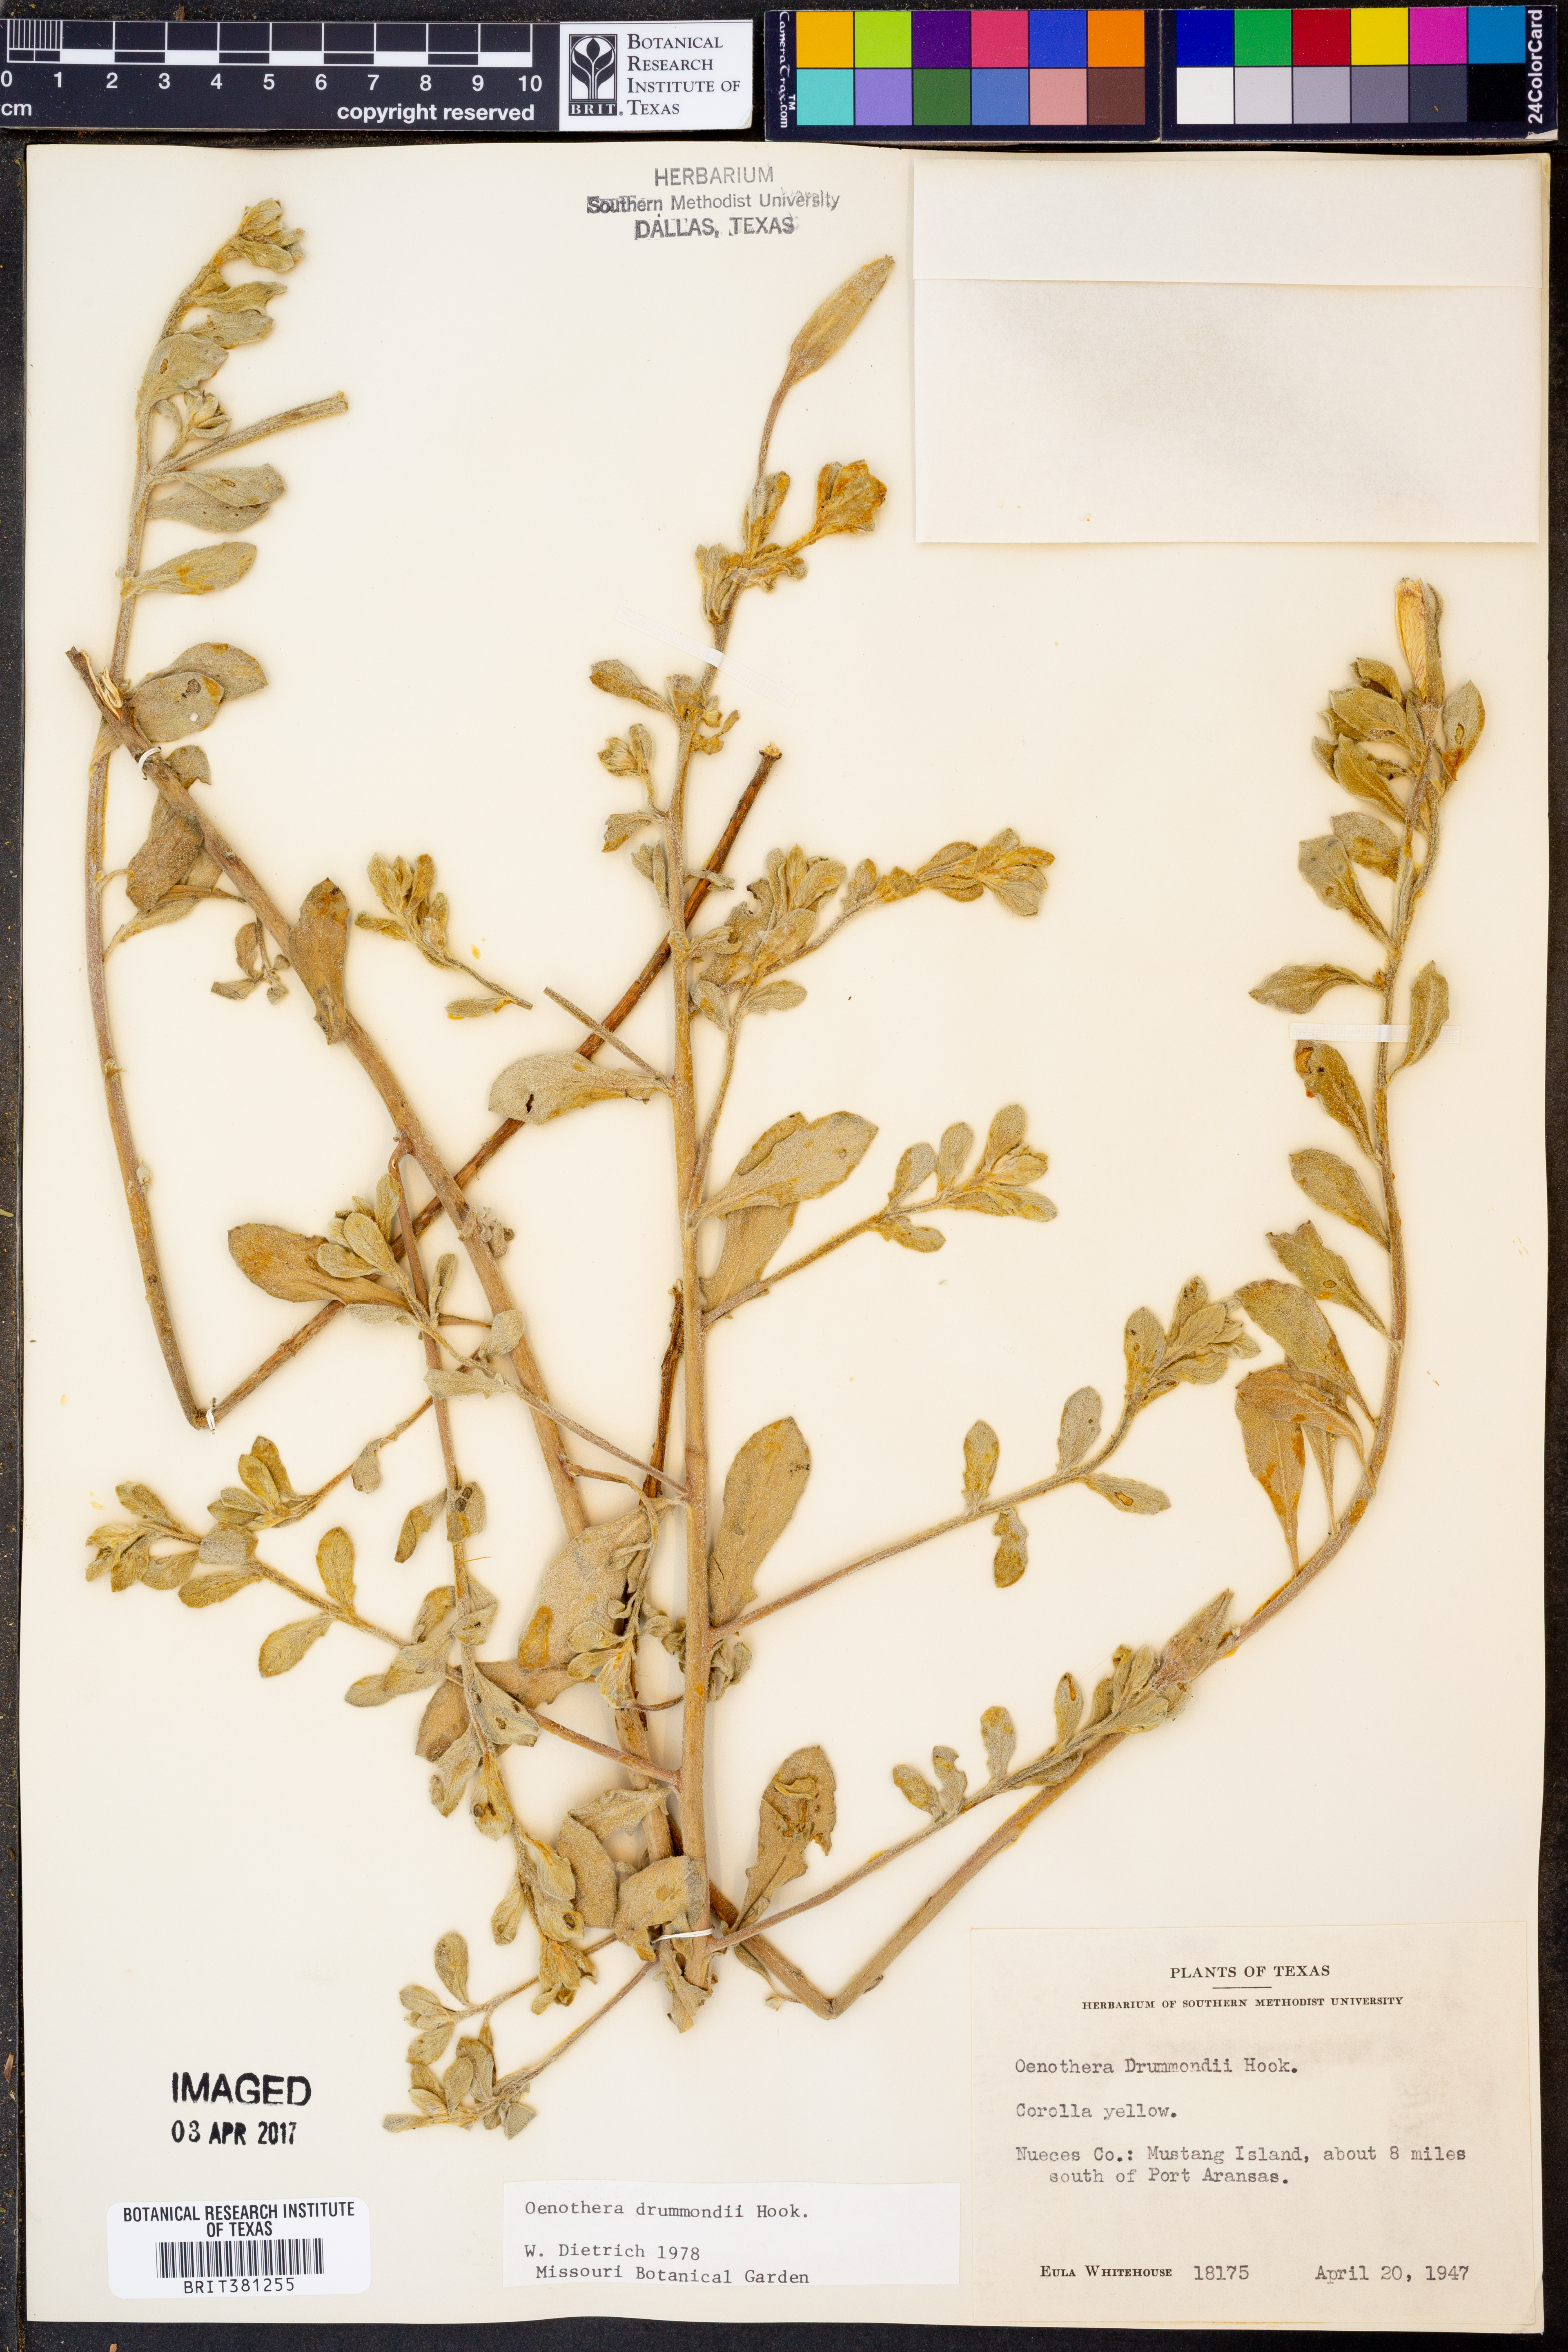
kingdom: Plantae
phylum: Tracheophyta
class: Magnoliopsida
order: Myrtales
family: Onagraceae
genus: Oenothera
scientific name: Oenothera drummondii
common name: Beach evening-primrose
